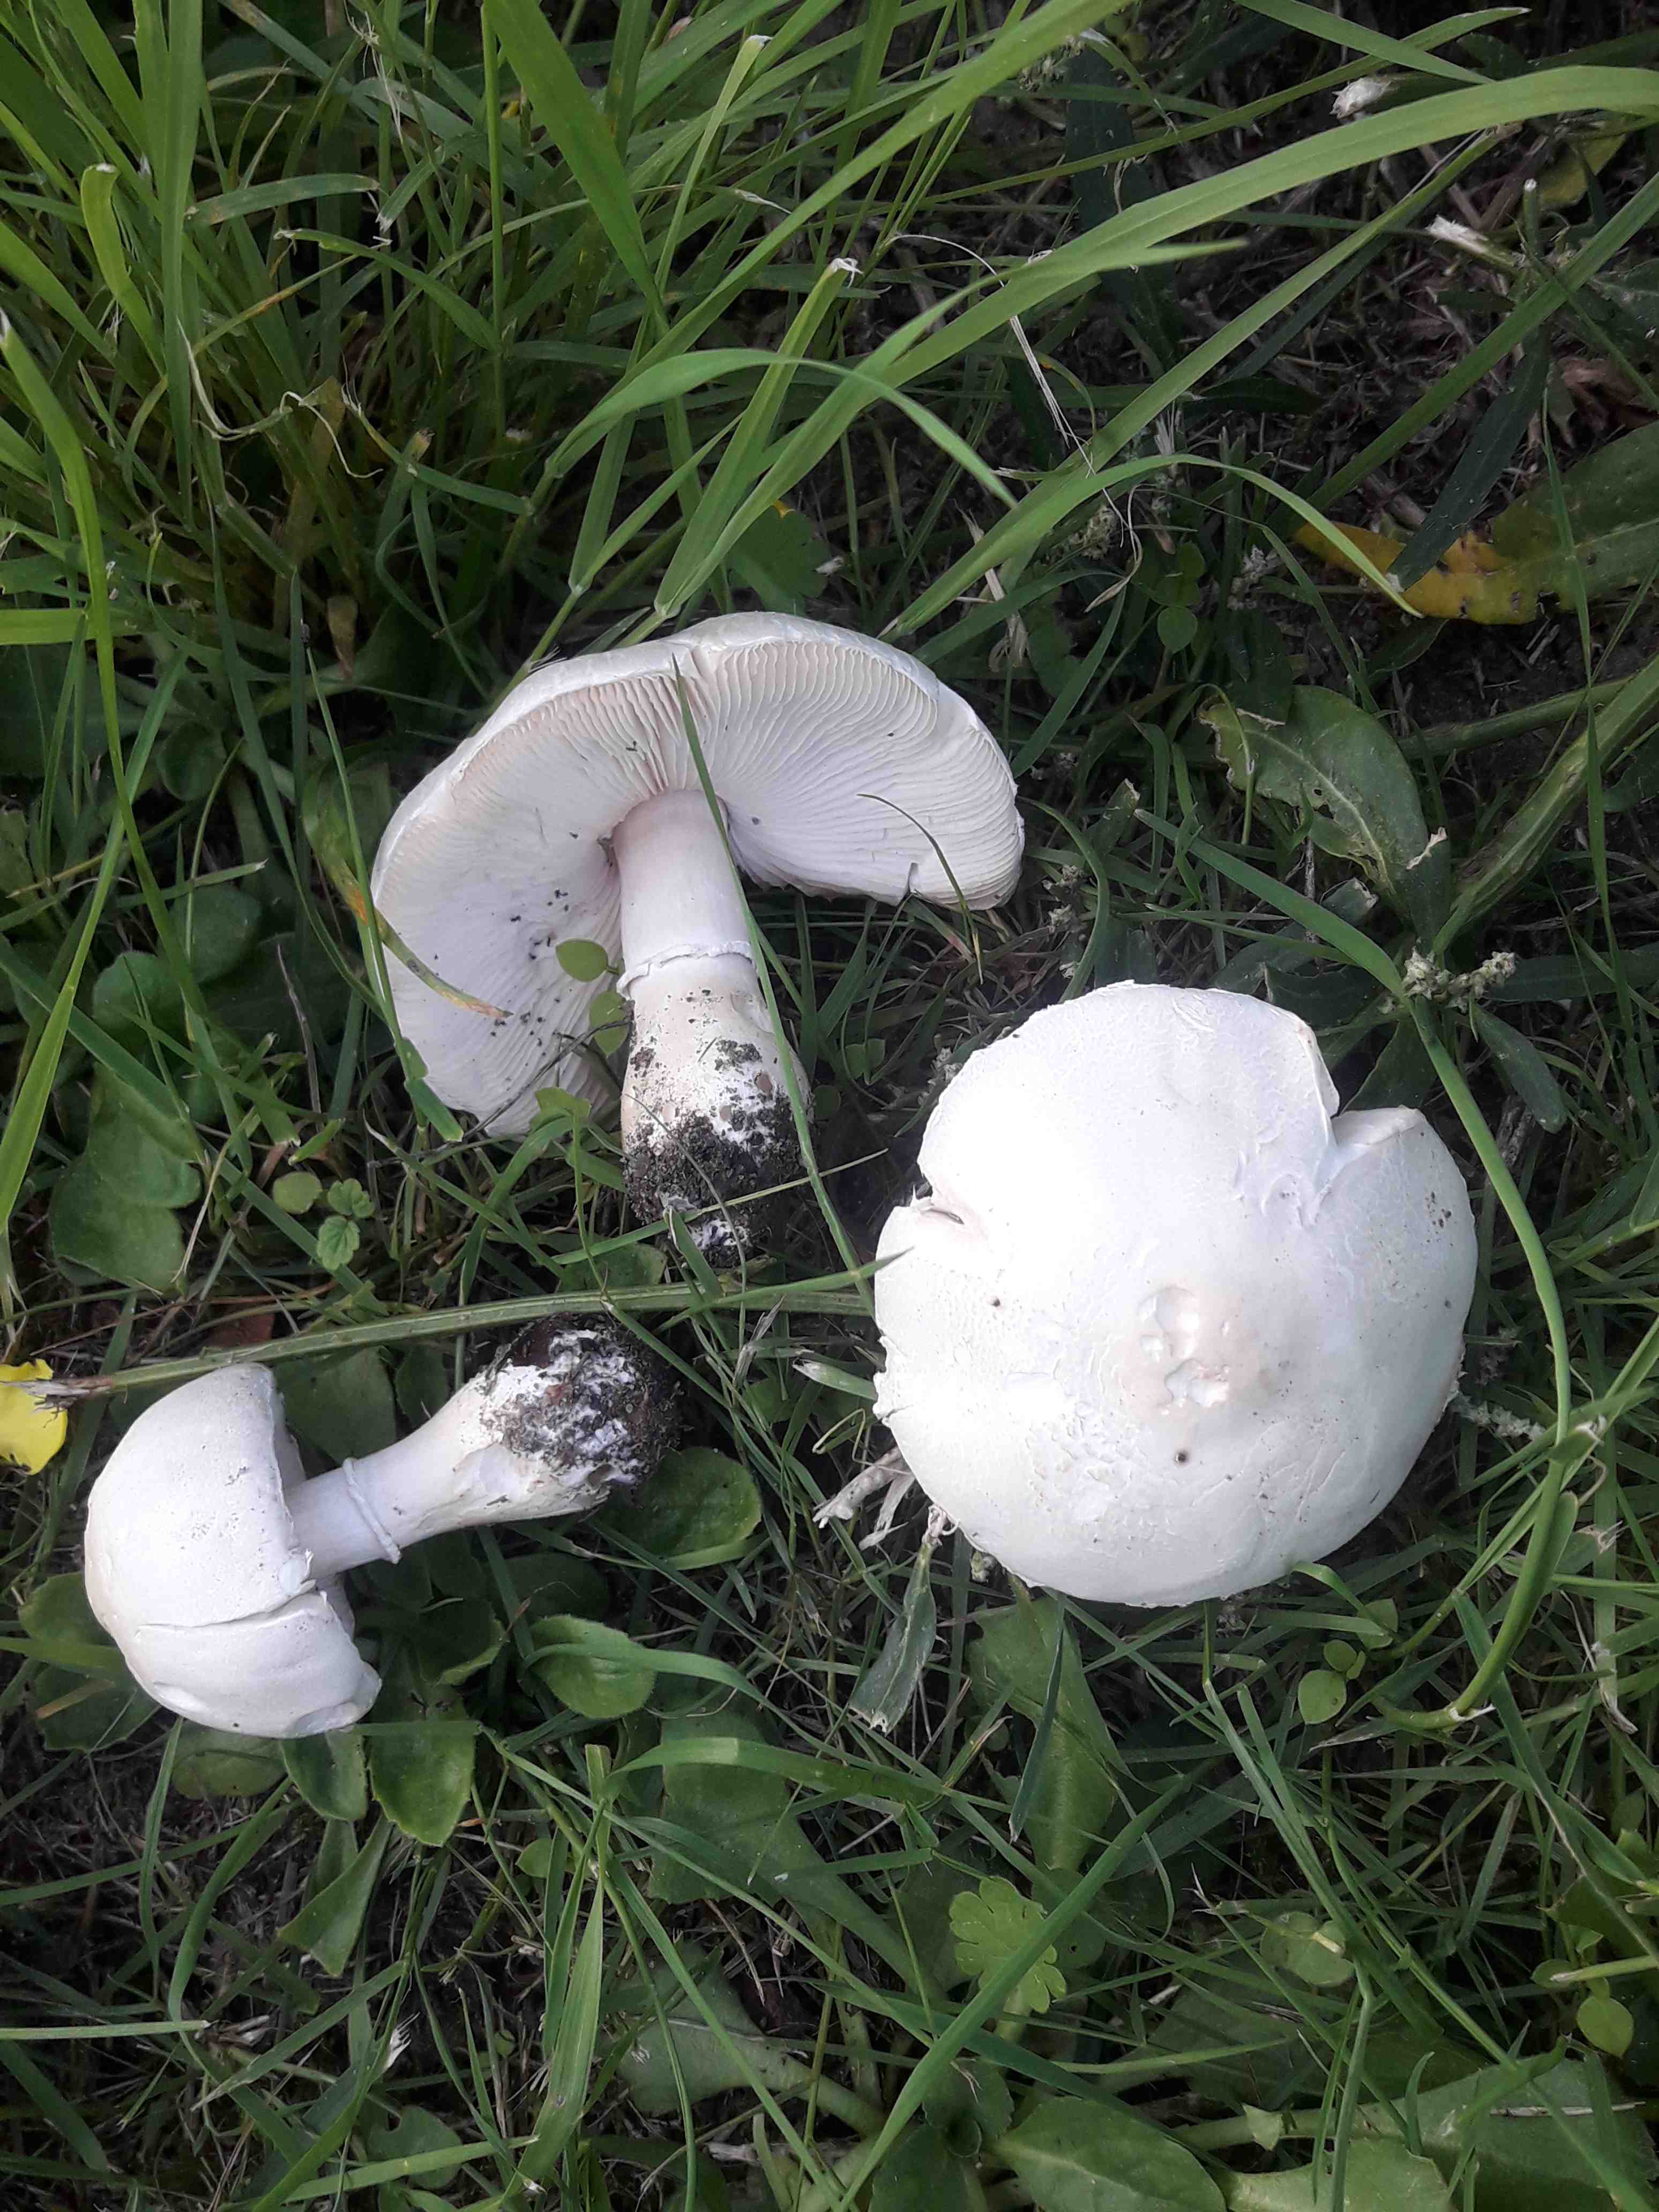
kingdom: Fungi
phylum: Basidiomycota
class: Agaricomycetes
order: Agaricales
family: Agaricaceae
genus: Leucoagaricus
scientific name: Leucoagaricus leucothites
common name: rosabladet silkehat
